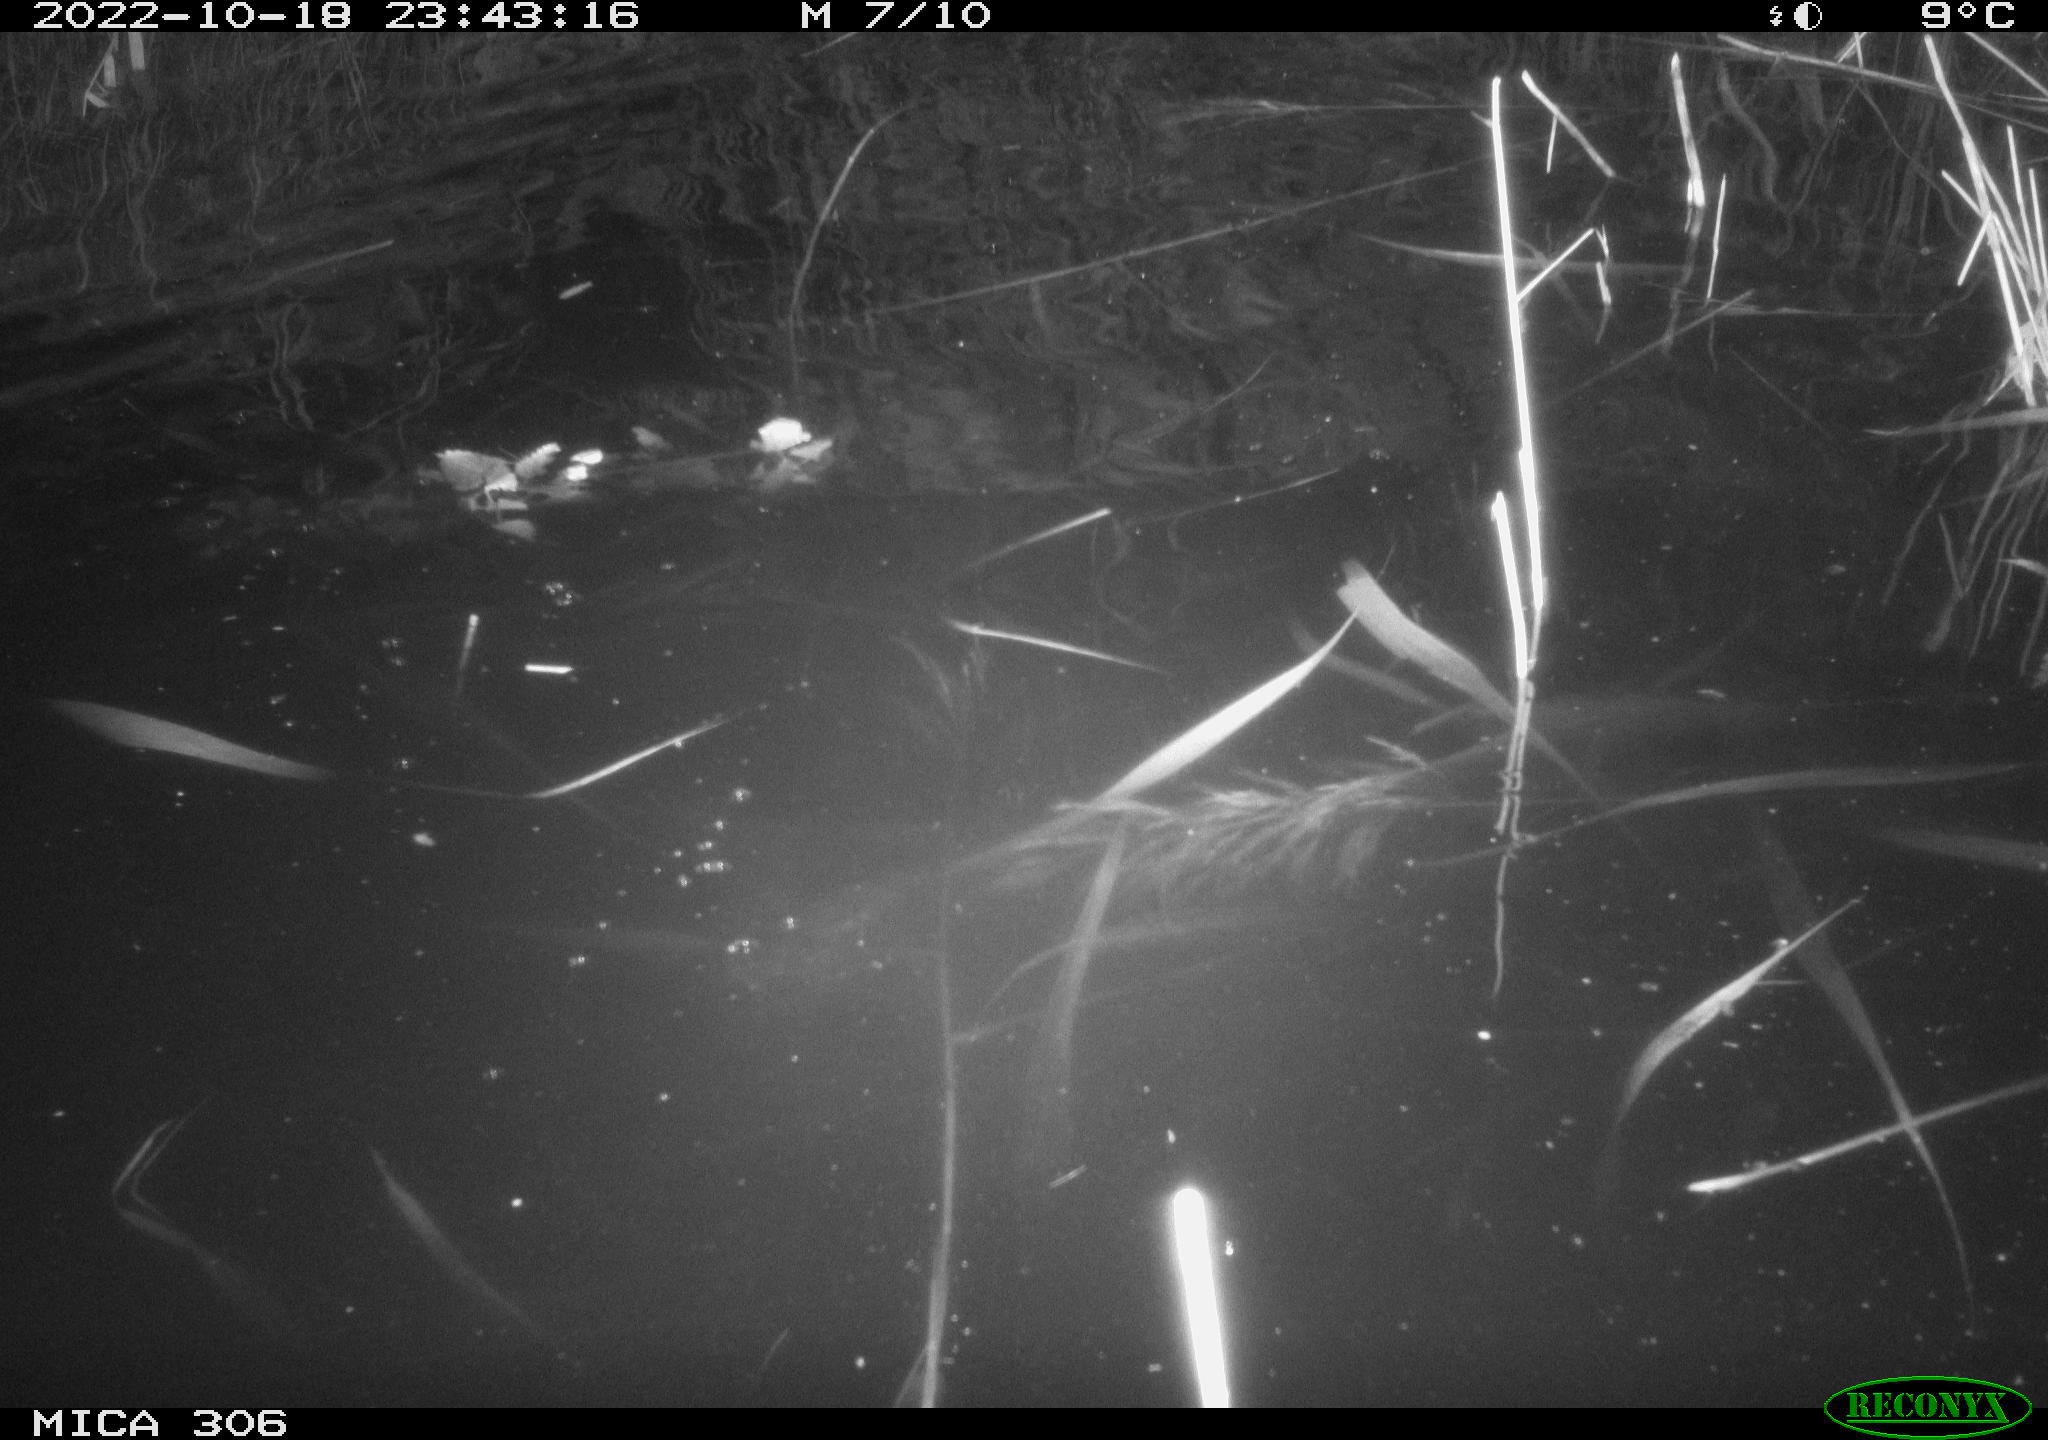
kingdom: Animalia
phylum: Chordata
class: Mammalia
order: Rodentia
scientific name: Rodentia
